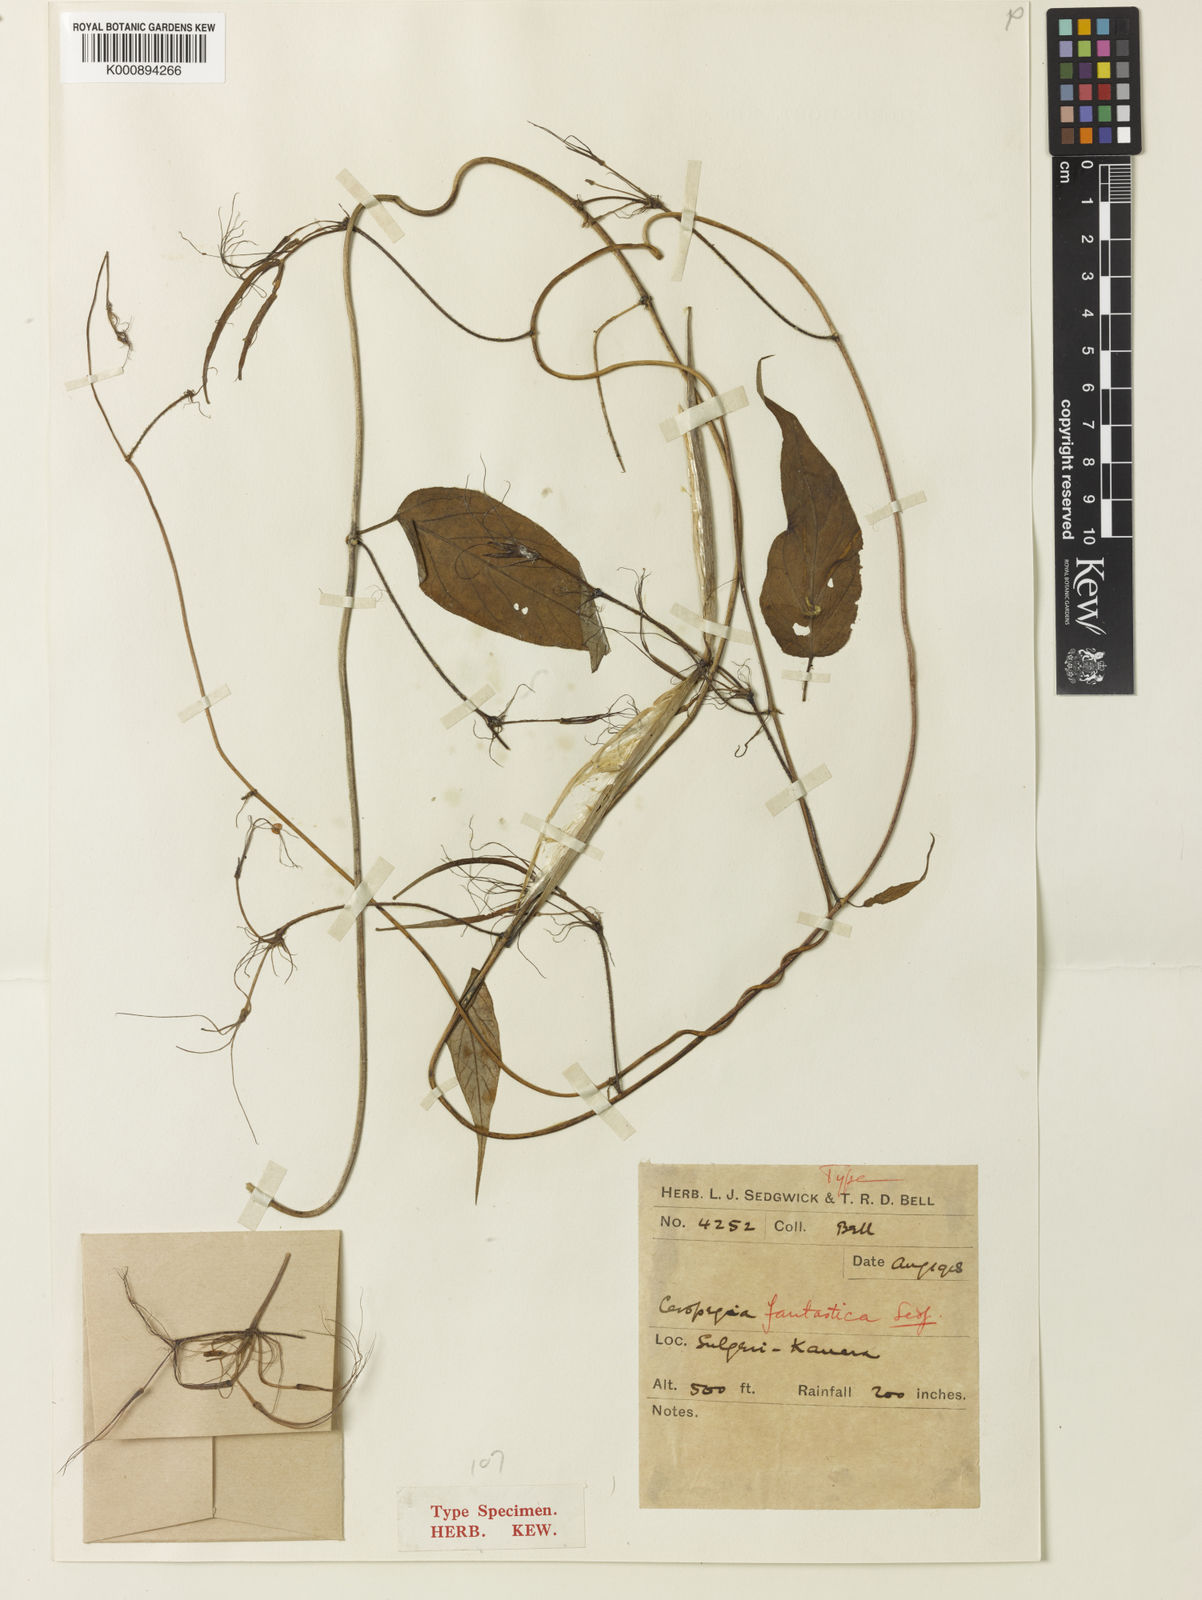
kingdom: Plantae
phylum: Tracheophyta
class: Magnoliopsida
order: Gentianales
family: Apocynaceae
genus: Ceropegia
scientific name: Ceropegia fantastica
